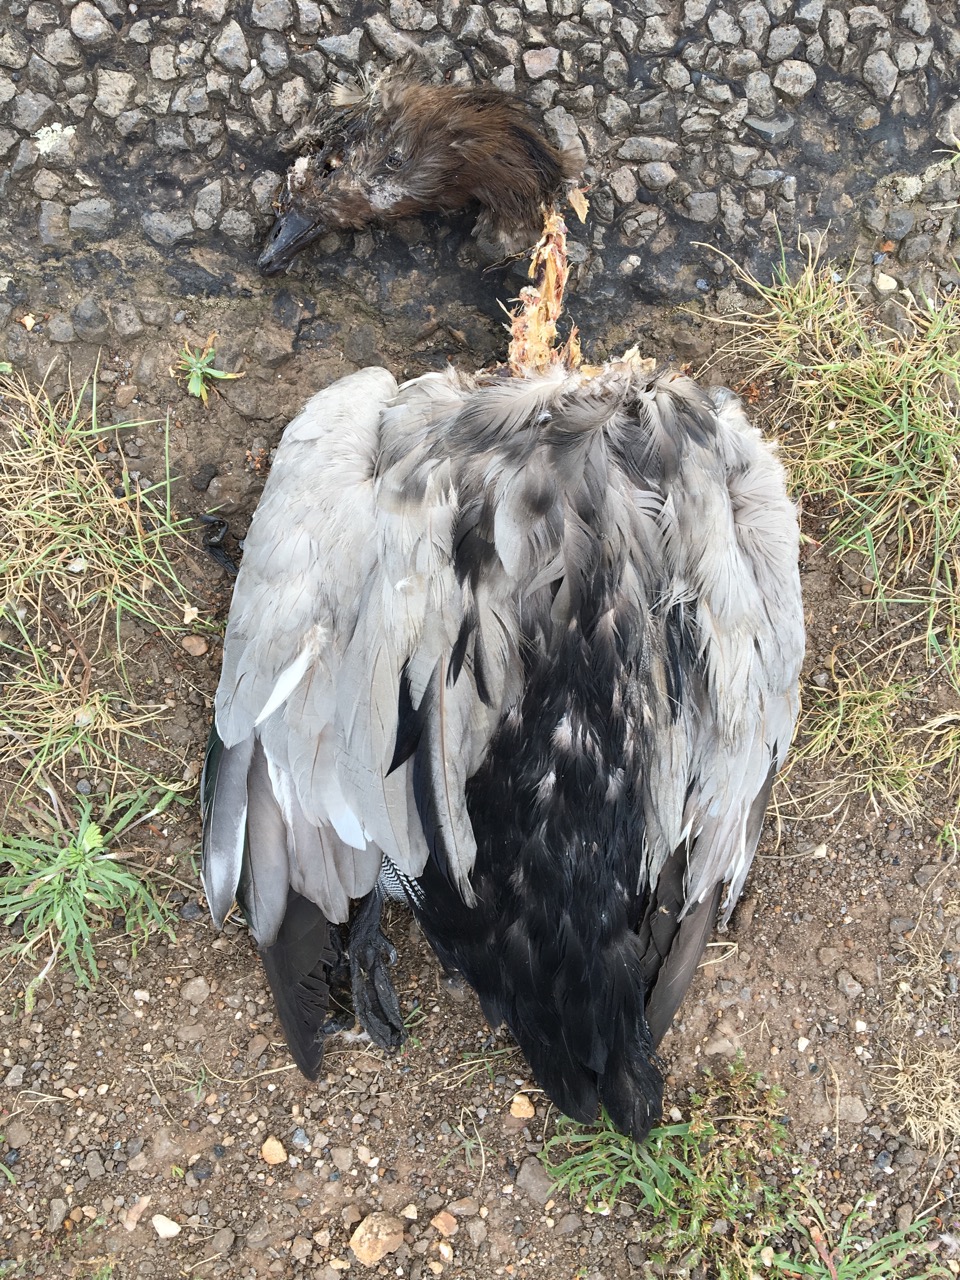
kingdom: Animalia
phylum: Chordata
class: Aves
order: Anseriformes
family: Anatidae
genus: Chenonetta
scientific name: Chenonetta jubata
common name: Maned duck
